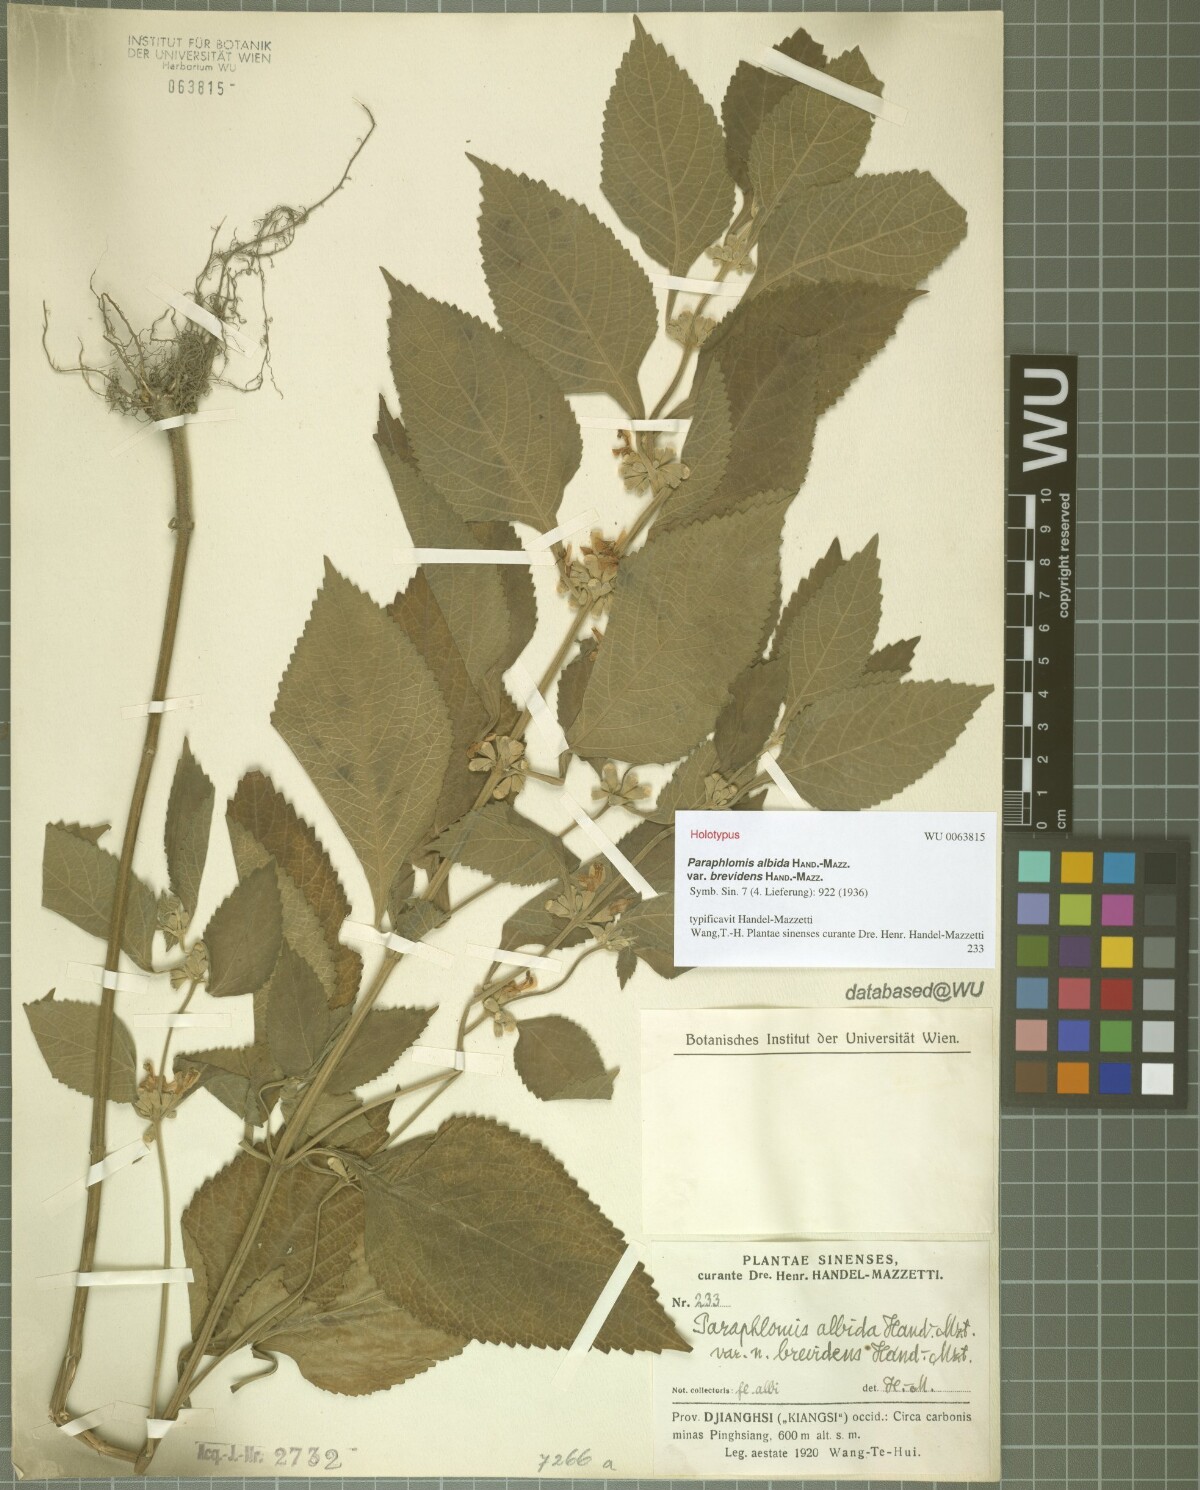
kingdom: Plantae
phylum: Tracheophyta
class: Magnoliopsida
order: Lamiales
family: Lamiaceae
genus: Paraphlomis
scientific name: Paraphlomis albida
